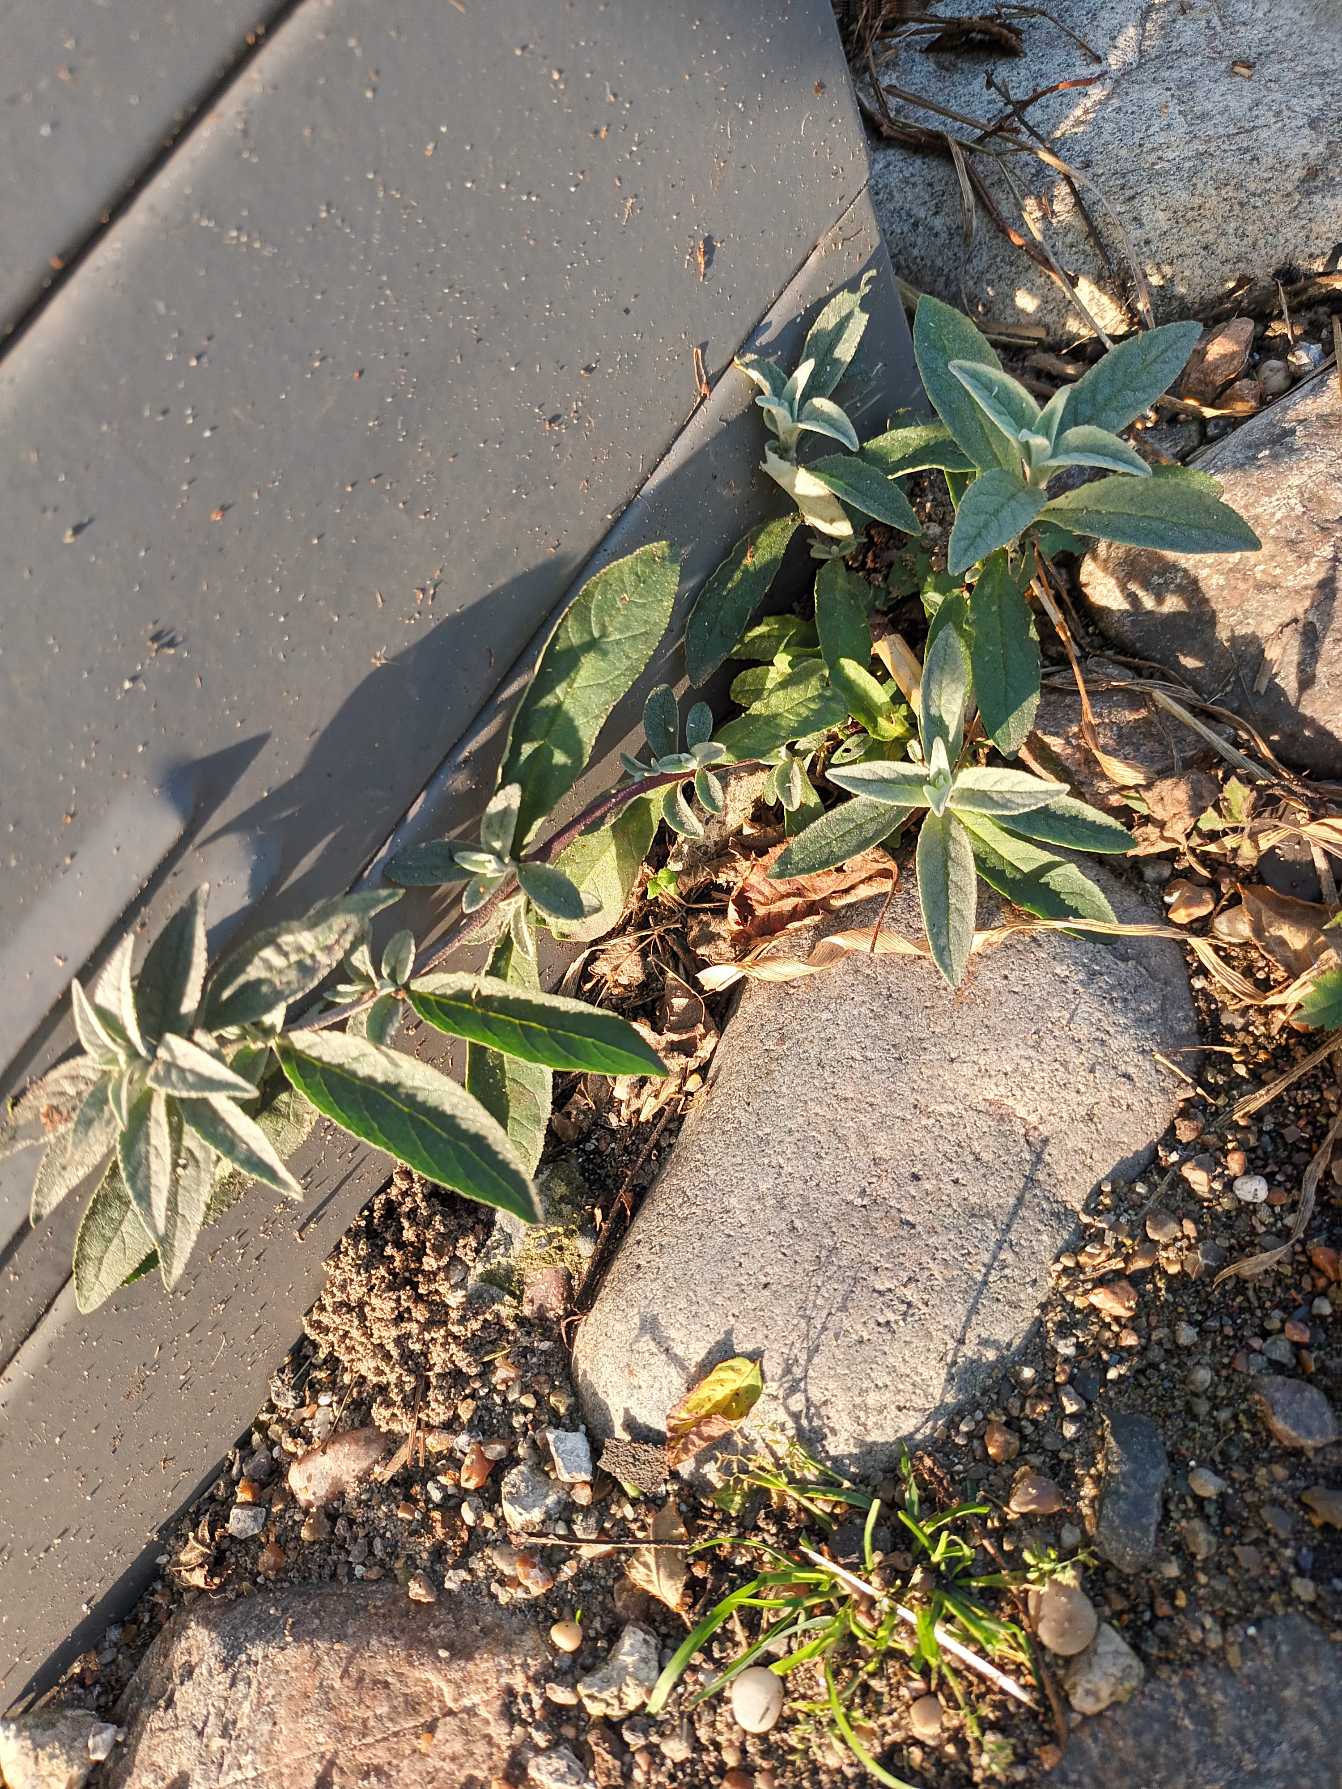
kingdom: Plantae
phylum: Tracheophyta
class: Magnoliopsida
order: Lamiales
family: Scrophulariaceae
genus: Buddleja
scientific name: Buddleja davidii
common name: Sommerfuglebusk
